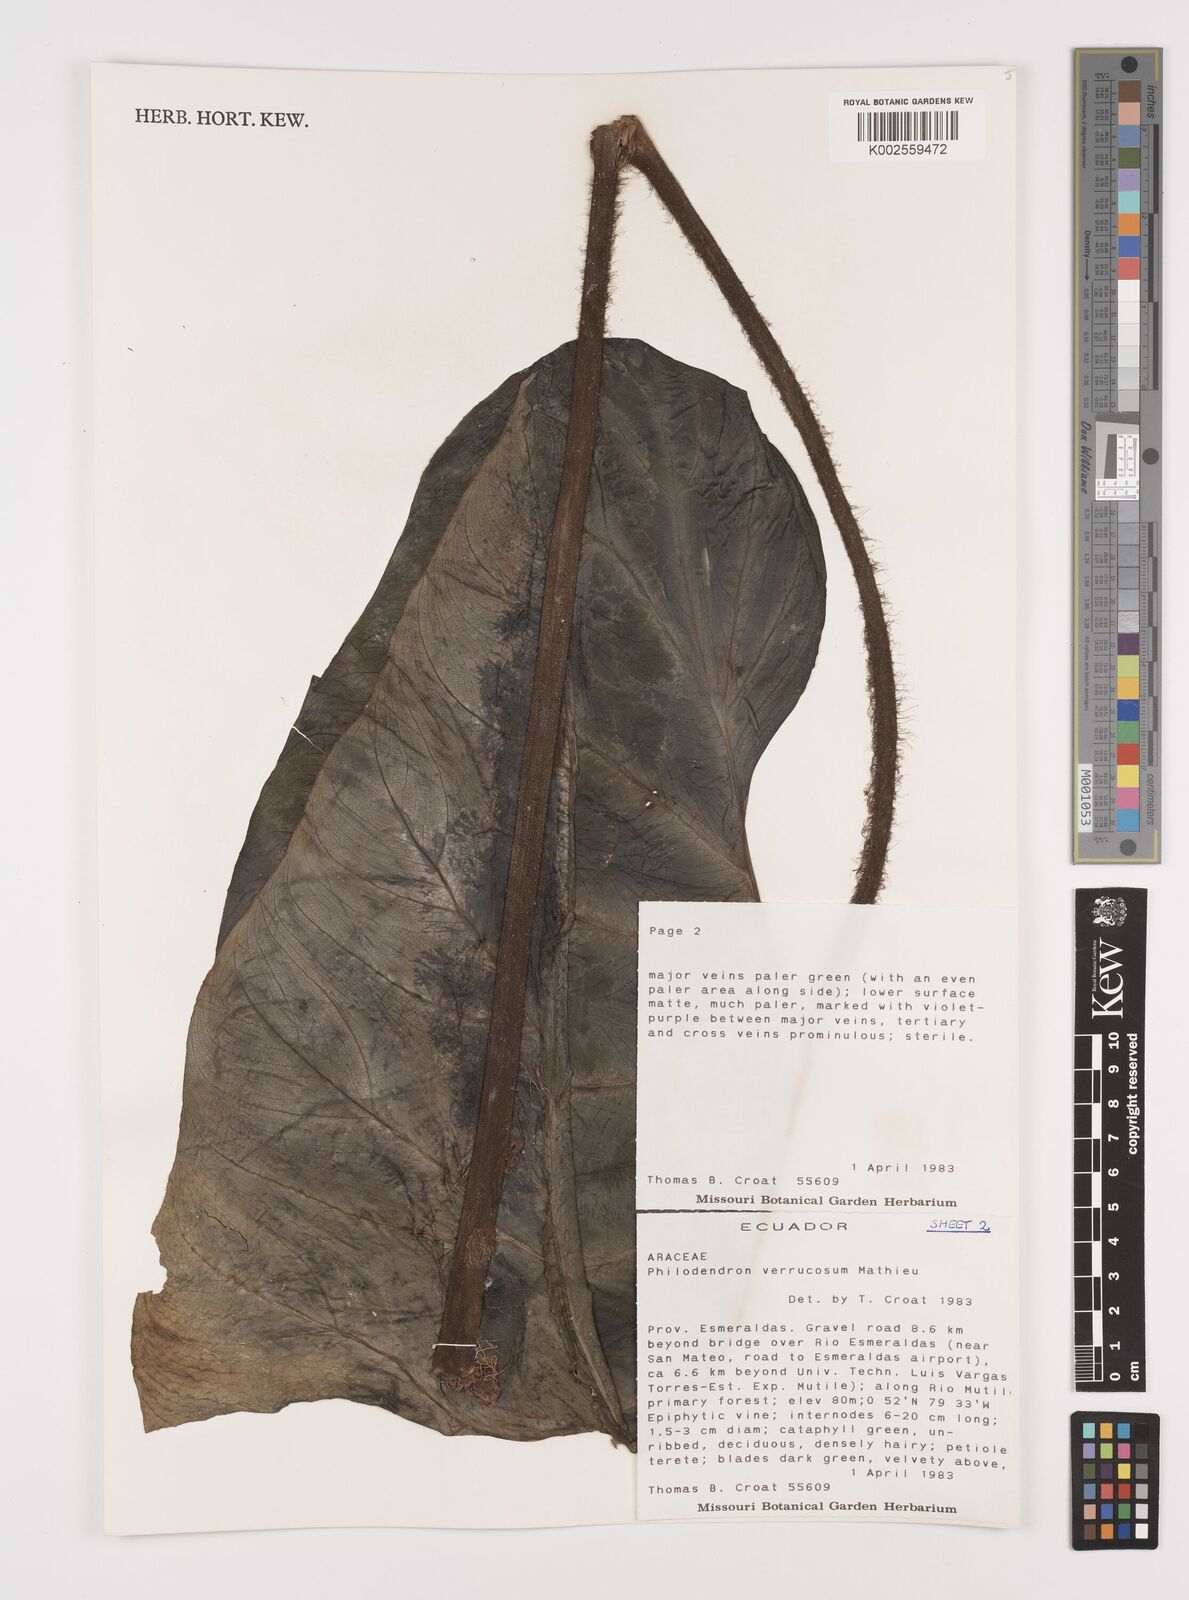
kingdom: Plantae
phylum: Tracheophyta
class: Liliopsida
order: Alismatales
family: Araceae
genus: Philodendron
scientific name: Philodendron verrucosum
